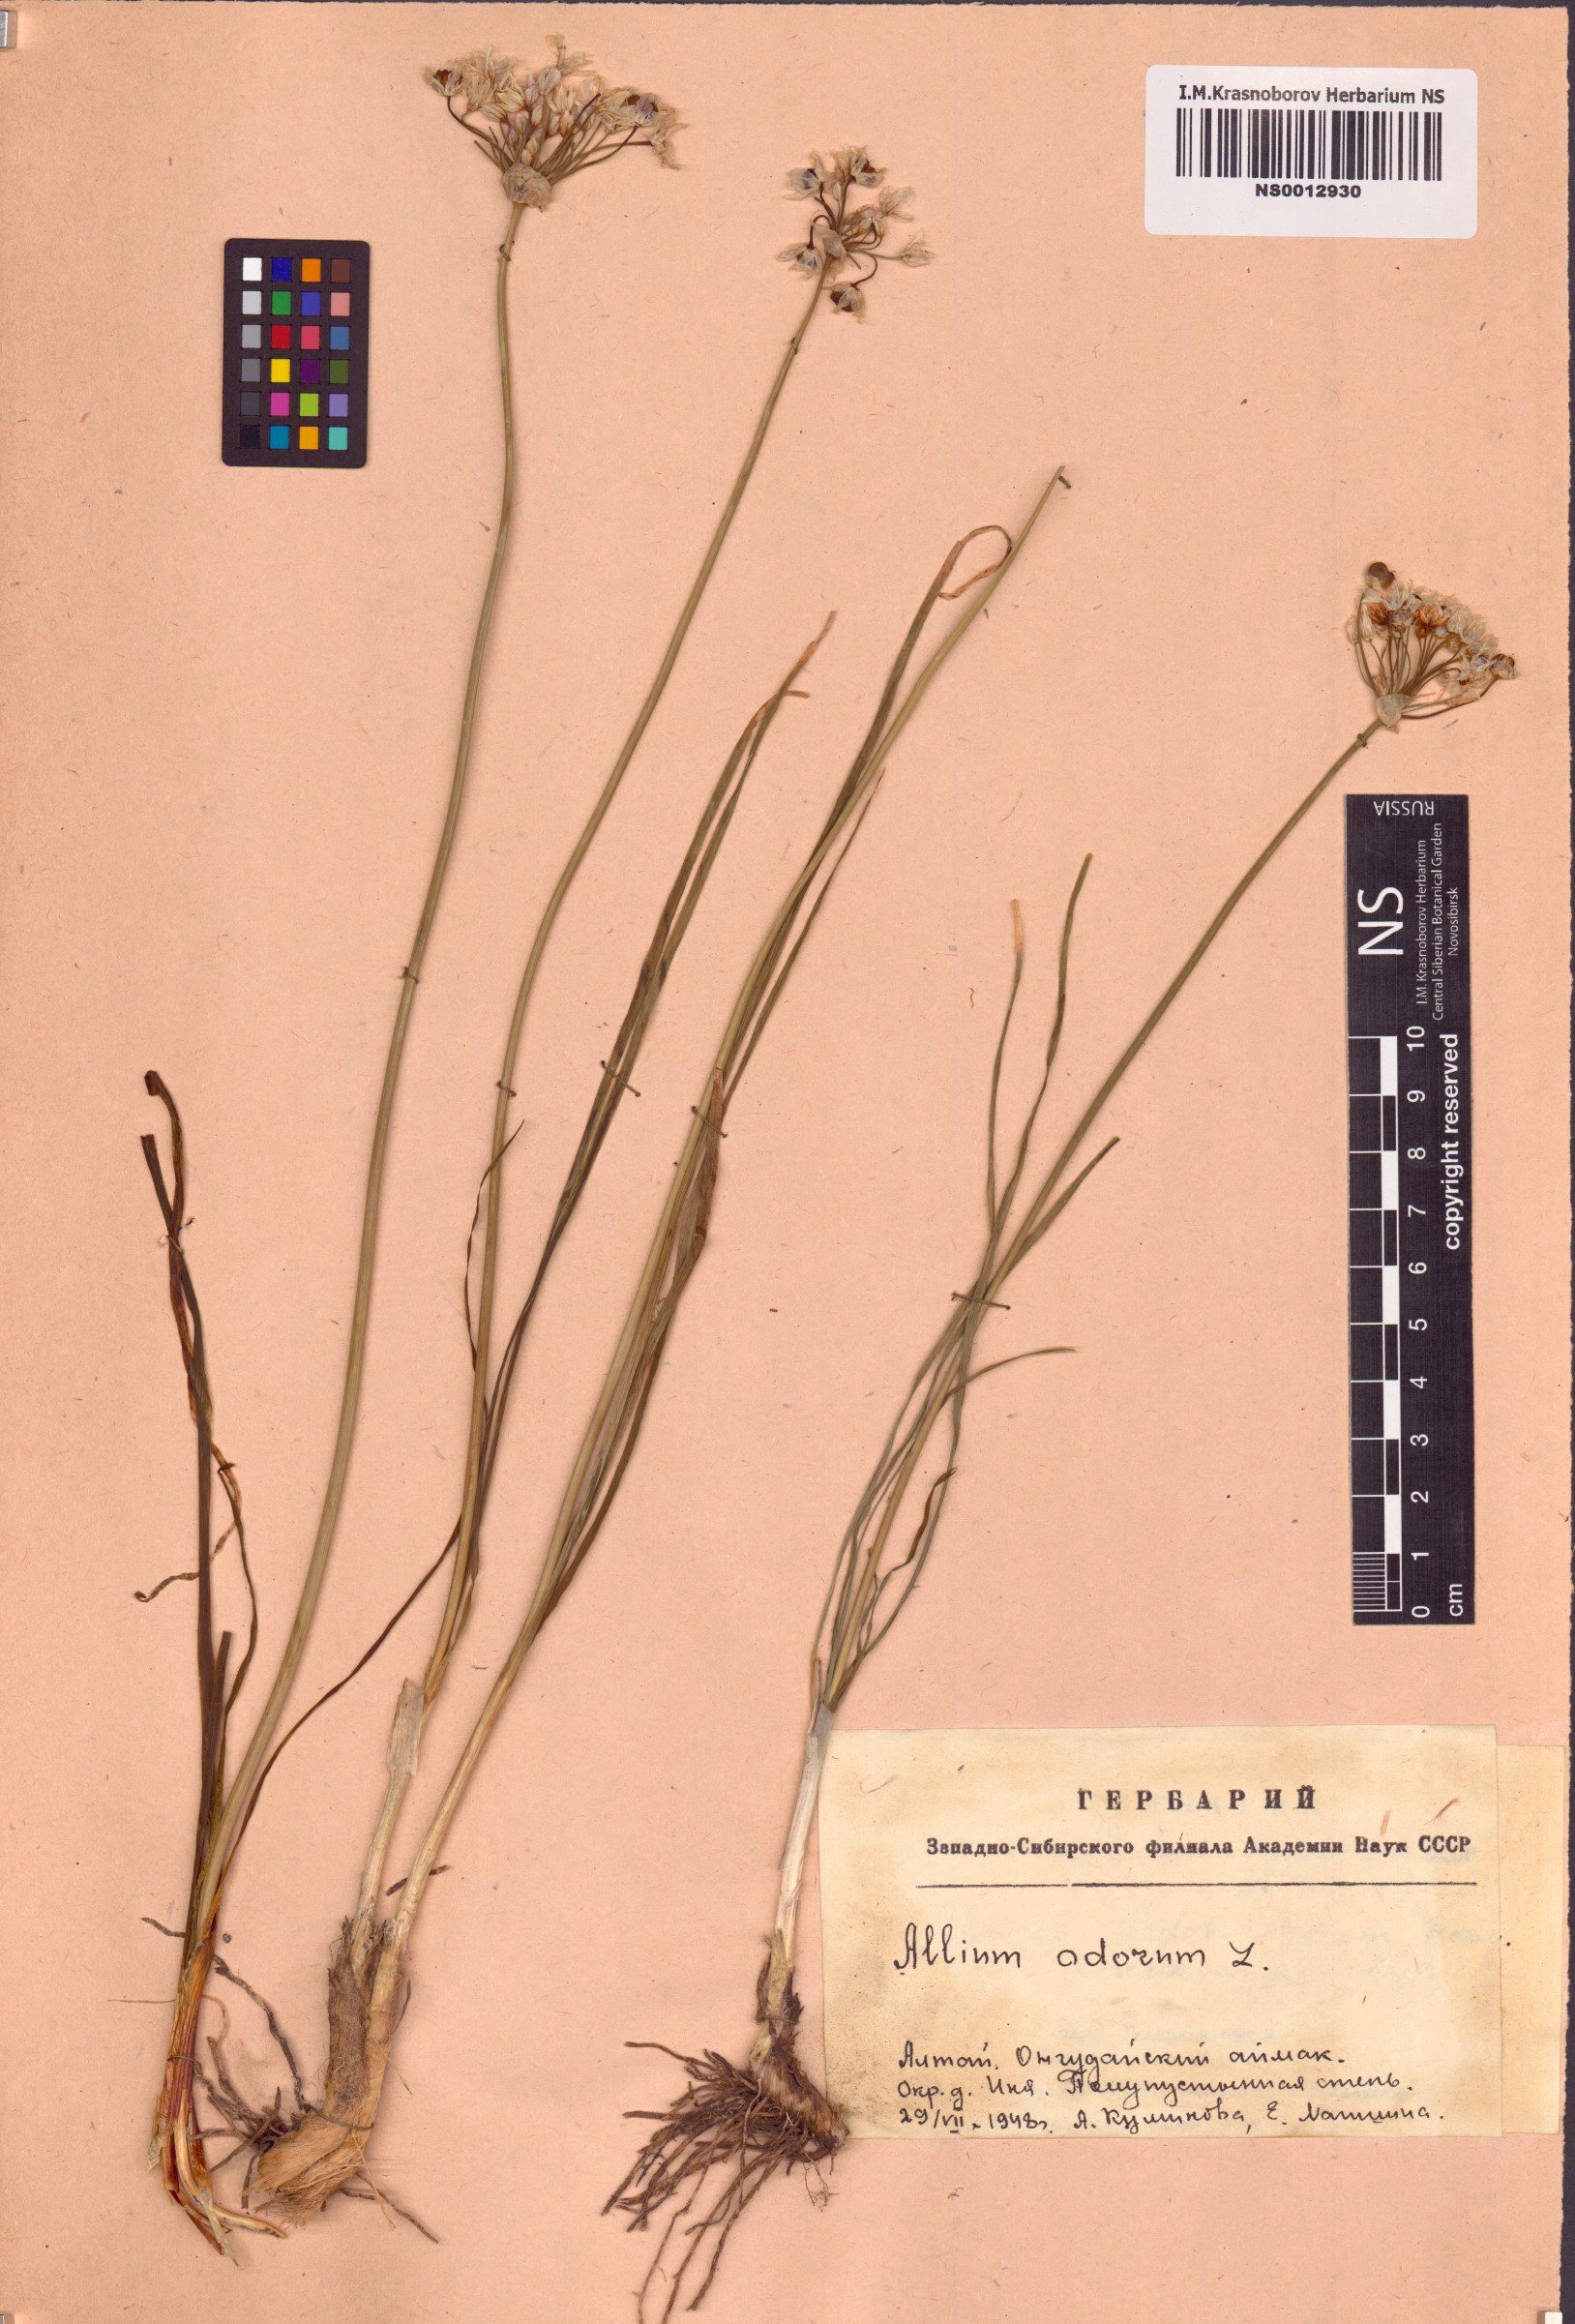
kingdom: Plantae
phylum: Tracheophyta
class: Liliopsida
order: Asparagales
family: Amaryllidaceae
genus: Allium
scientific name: Allium ramosum
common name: Fragrant garlic
